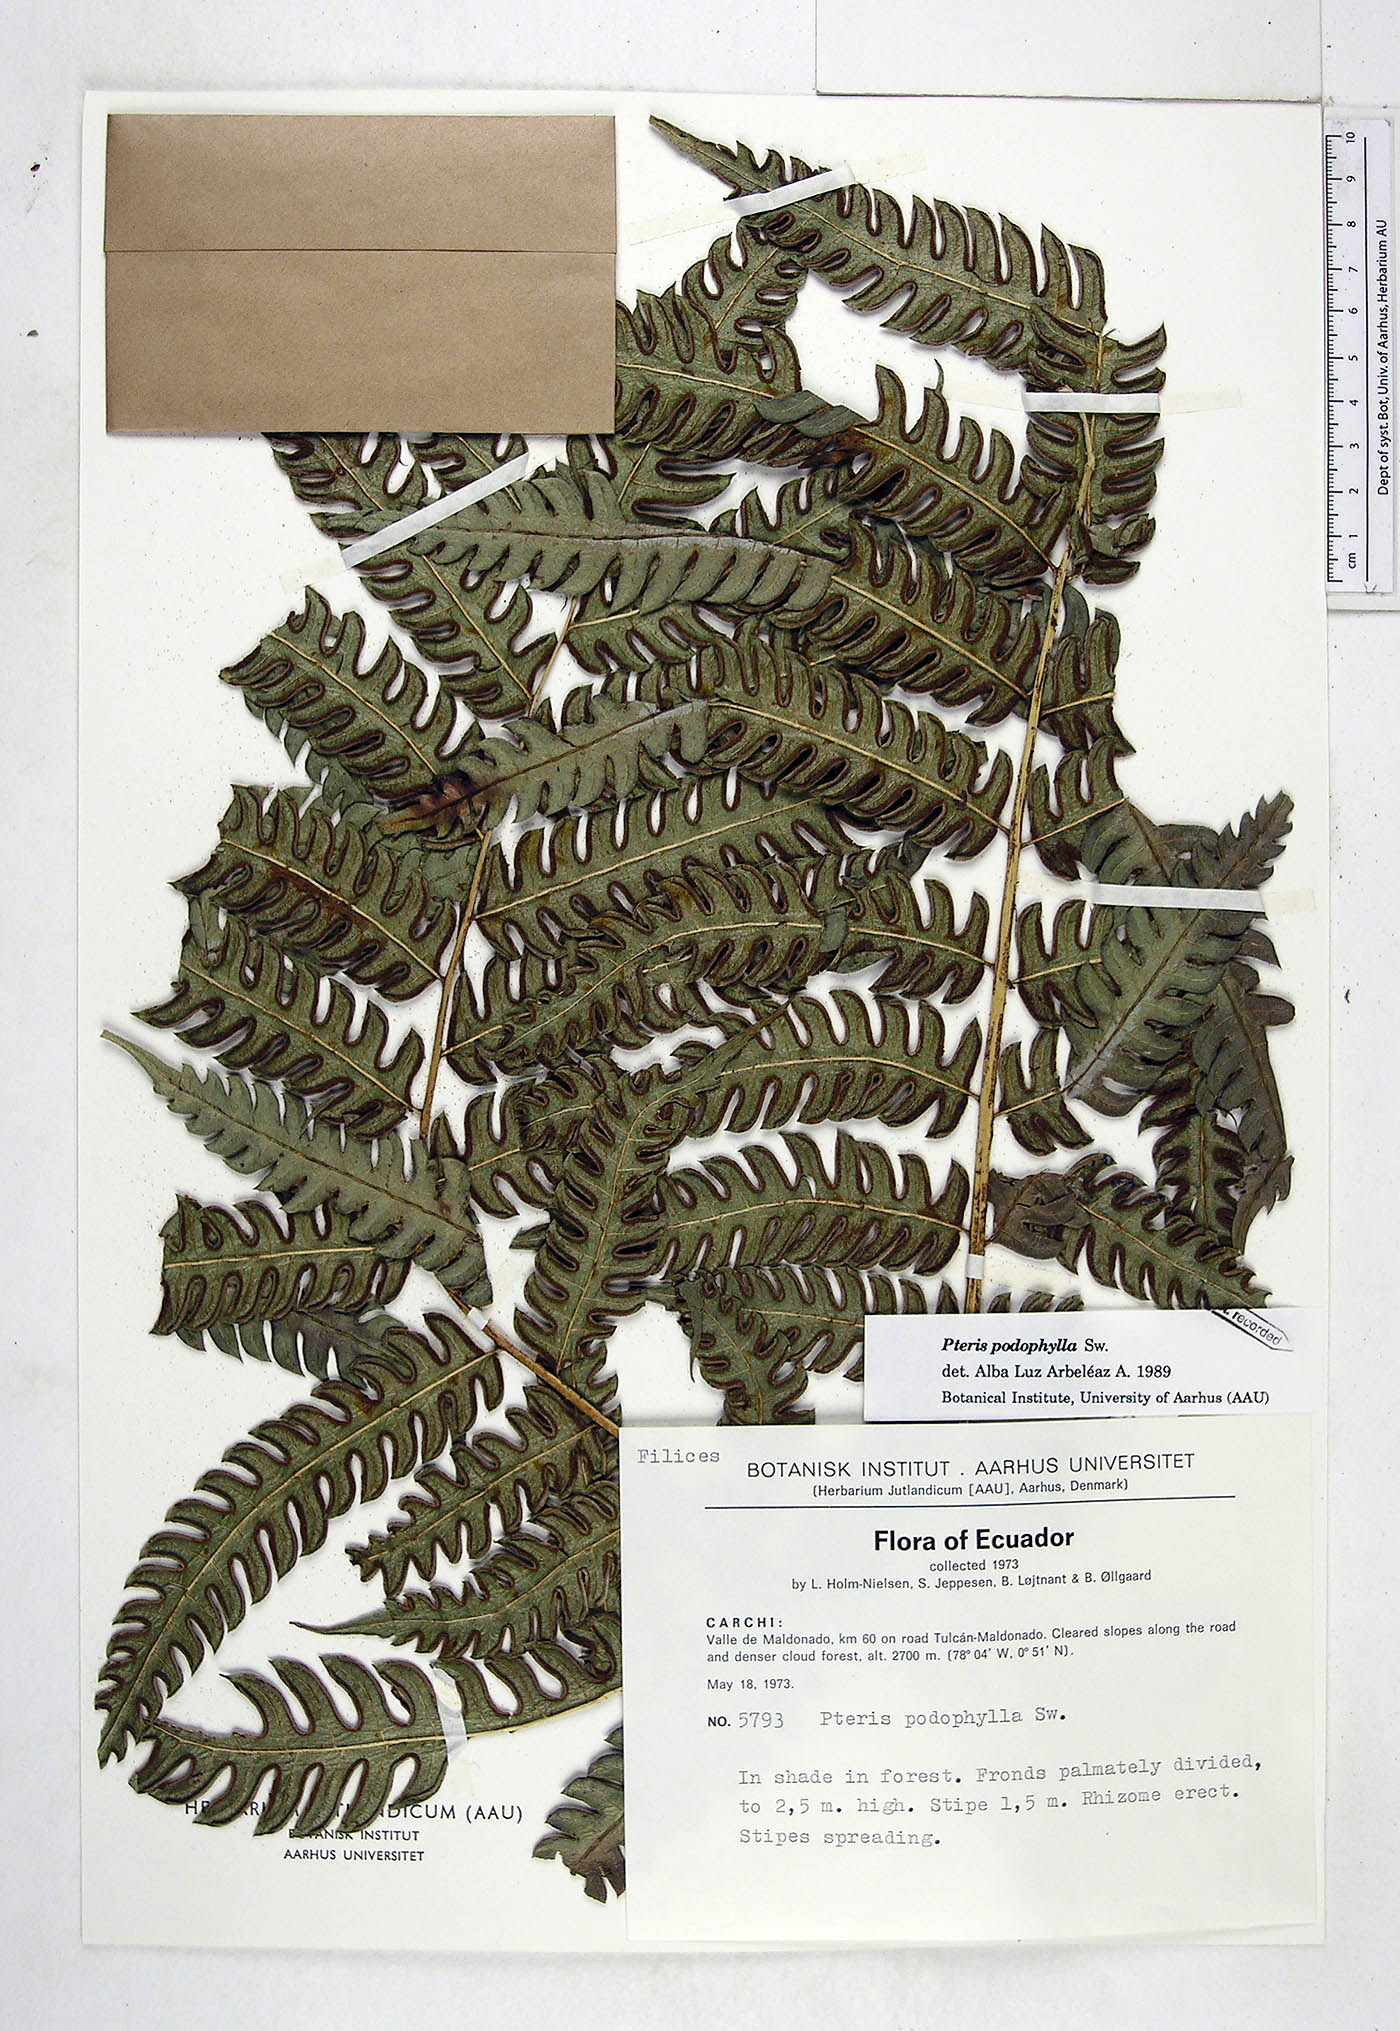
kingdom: Plantae
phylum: Tracheophyta
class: Polypodiopsida
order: Polypodiales
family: Pteridaceae
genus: Pteris
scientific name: Pteris podophylla
